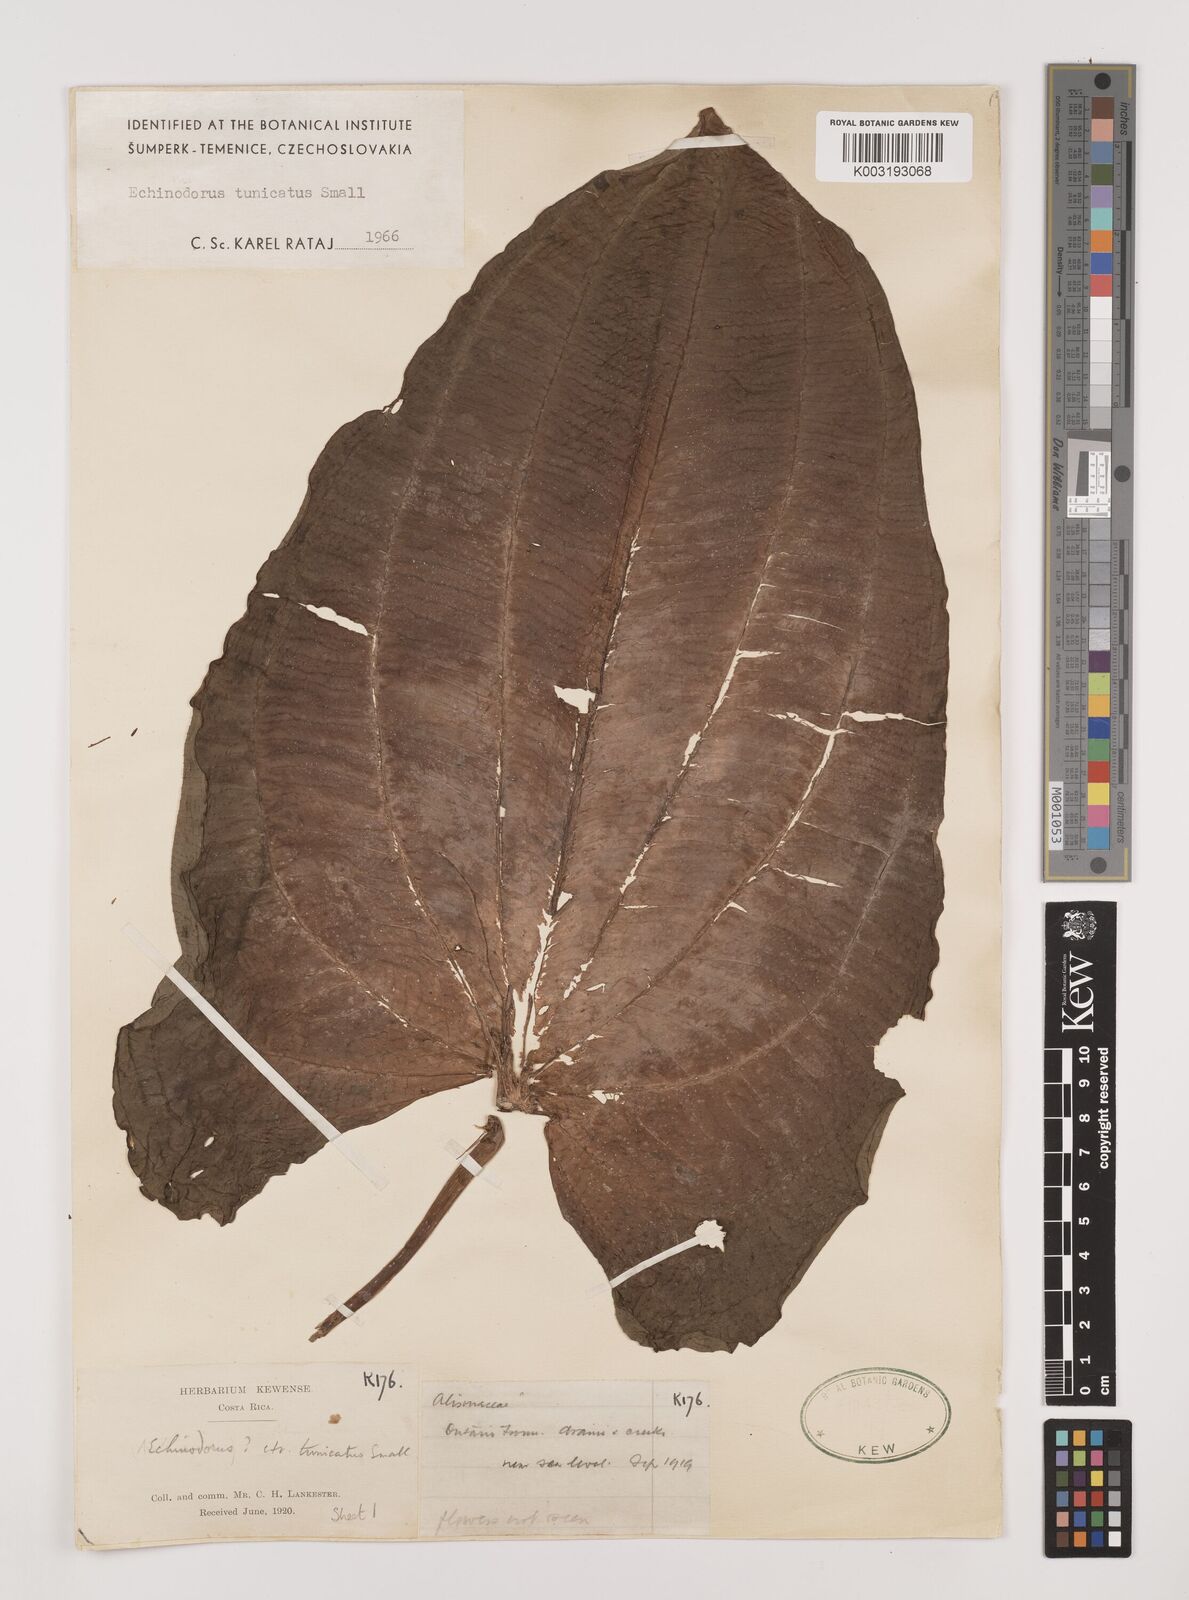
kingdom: Plantae
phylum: Tracheophyta
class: Liliopsida
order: Alismatales
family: Alismataceae
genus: Aquarius
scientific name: Aquarius tunicatus
